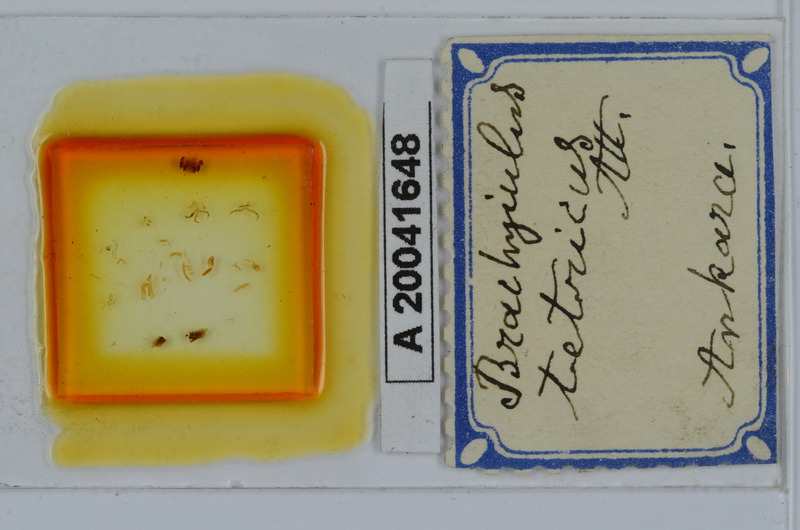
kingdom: Animalia
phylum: Arthropoda
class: Diplopoda
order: Julida
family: Julidae
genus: Cyphobrachyiulus
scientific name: Cyphobrachyiulus tetricus
